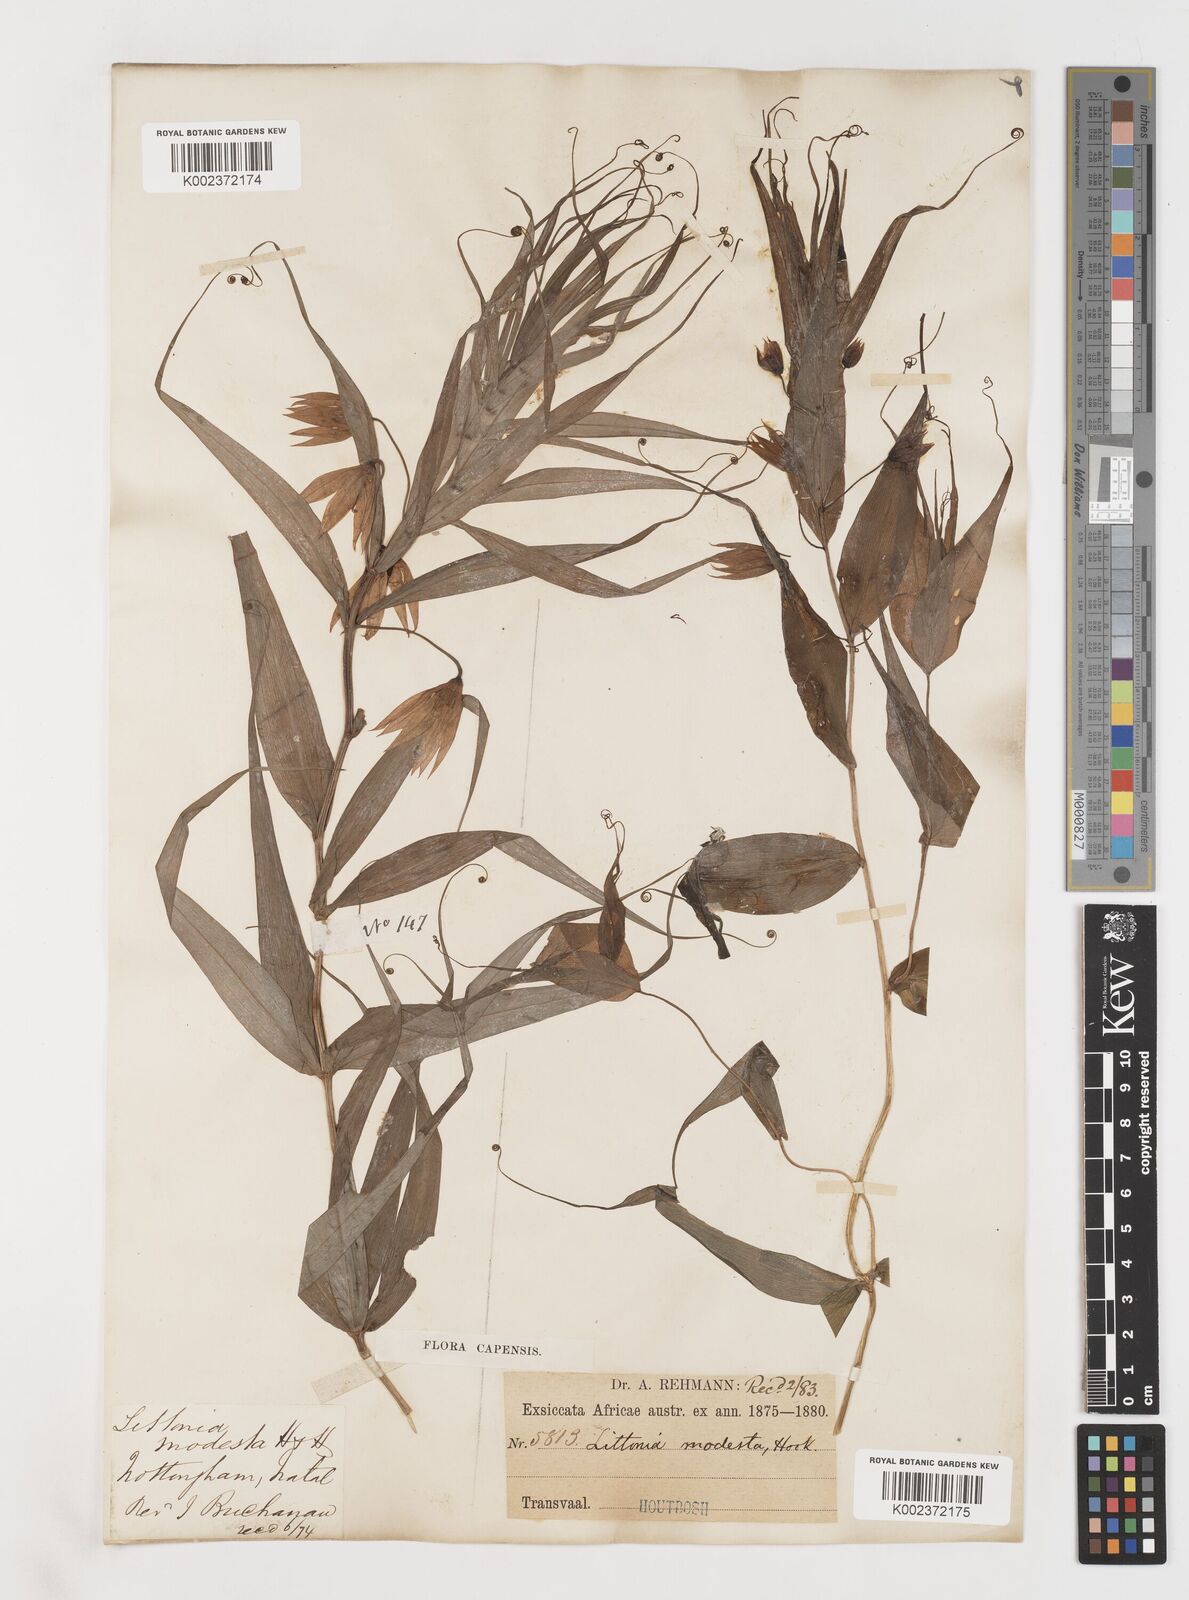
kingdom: Plantae
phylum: Tracheophyta
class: Liliopsida
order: Liliales
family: Colchicaceae
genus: Gloriosa
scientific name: Gloriosa modesta
